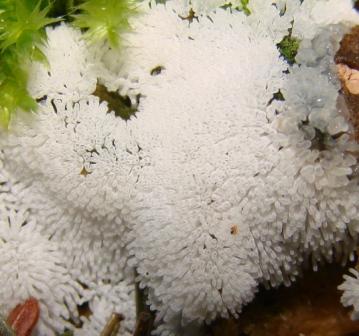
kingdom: Protozoa
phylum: Mycetozoa
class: Protosteliomycetes
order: Ceratiomyxales
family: Ceratiomyxaceae
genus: Ceratiomyxa
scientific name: Ceratiomyxa fruticulosa
